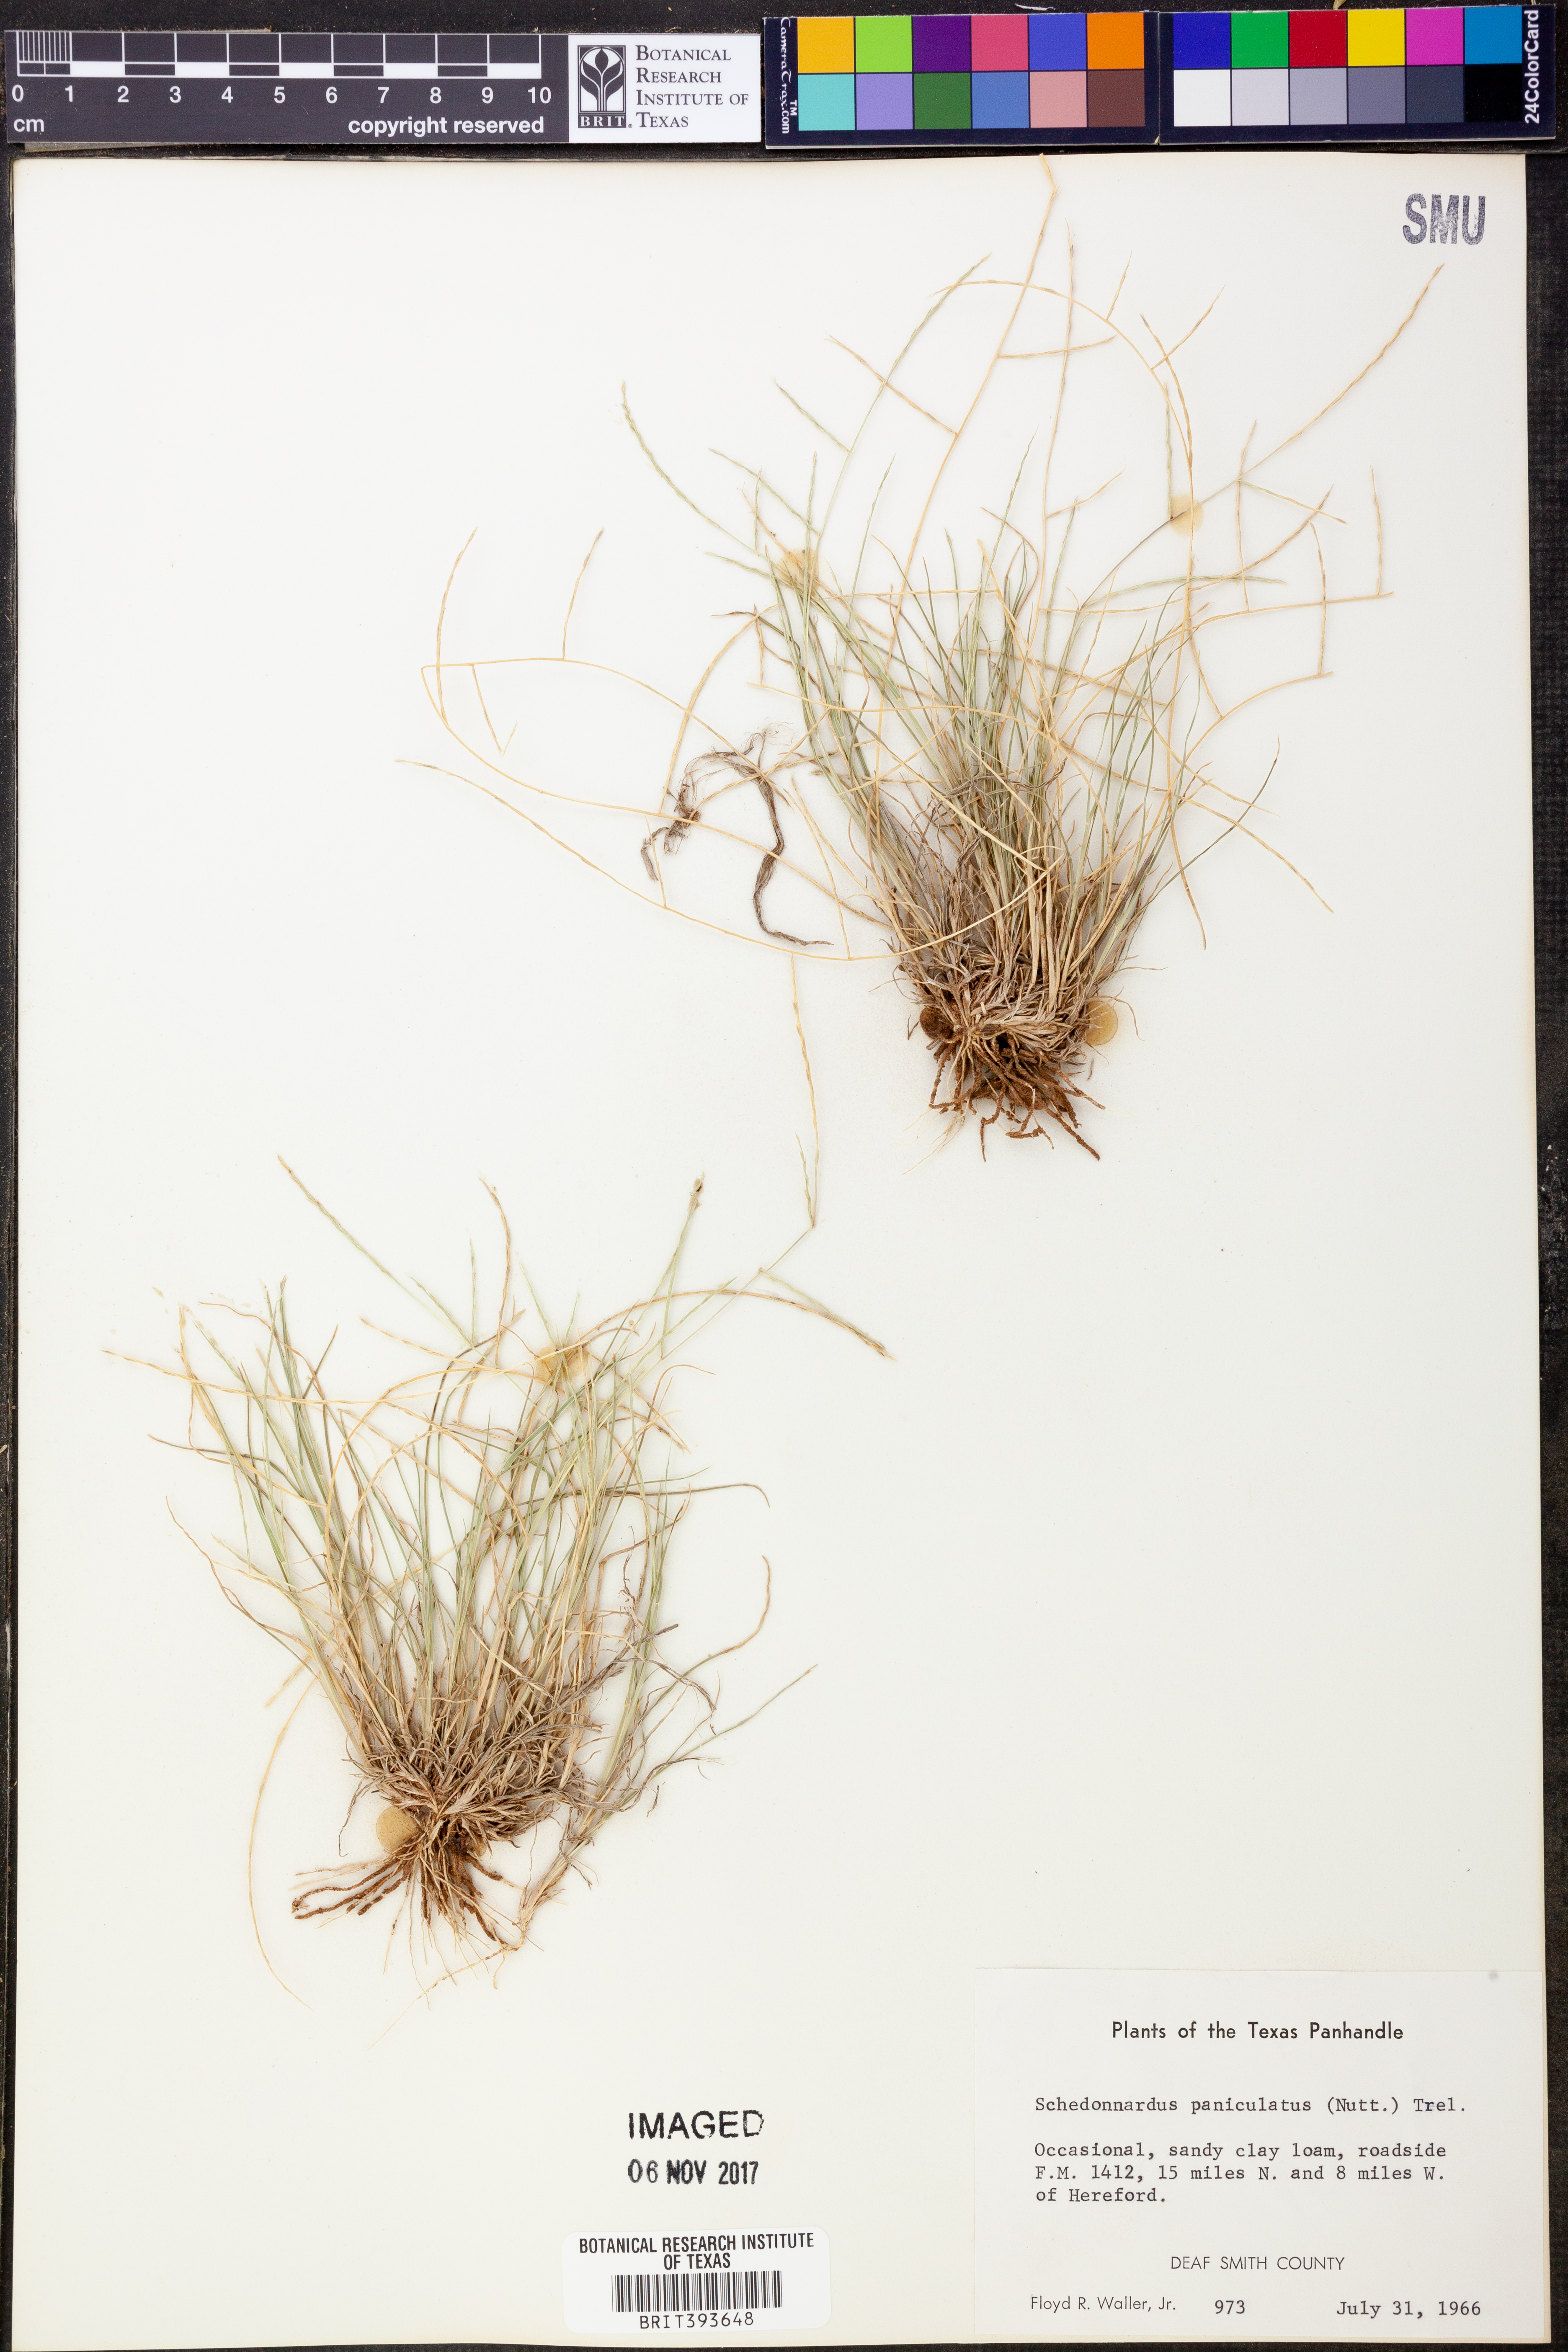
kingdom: Plantae
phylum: Tracheophyta
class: Liliopsida
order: Poales
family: Poaceae
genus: Muhlenbergia
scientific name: Muhlenbergia paniculata
